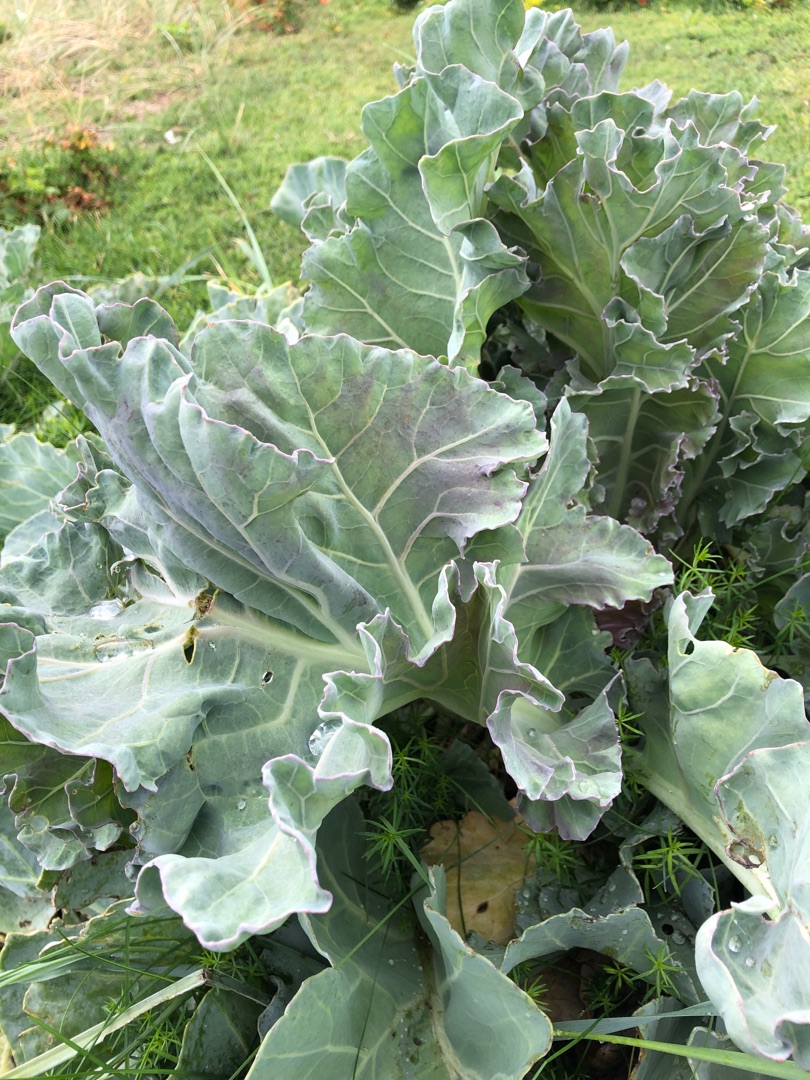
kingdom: Plantae
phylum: Tracheophyta
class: Magnoliopsida
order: Brassicales
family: Brassicaceae
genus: Crambe
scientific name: Crambe maritima
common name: Strandkål
